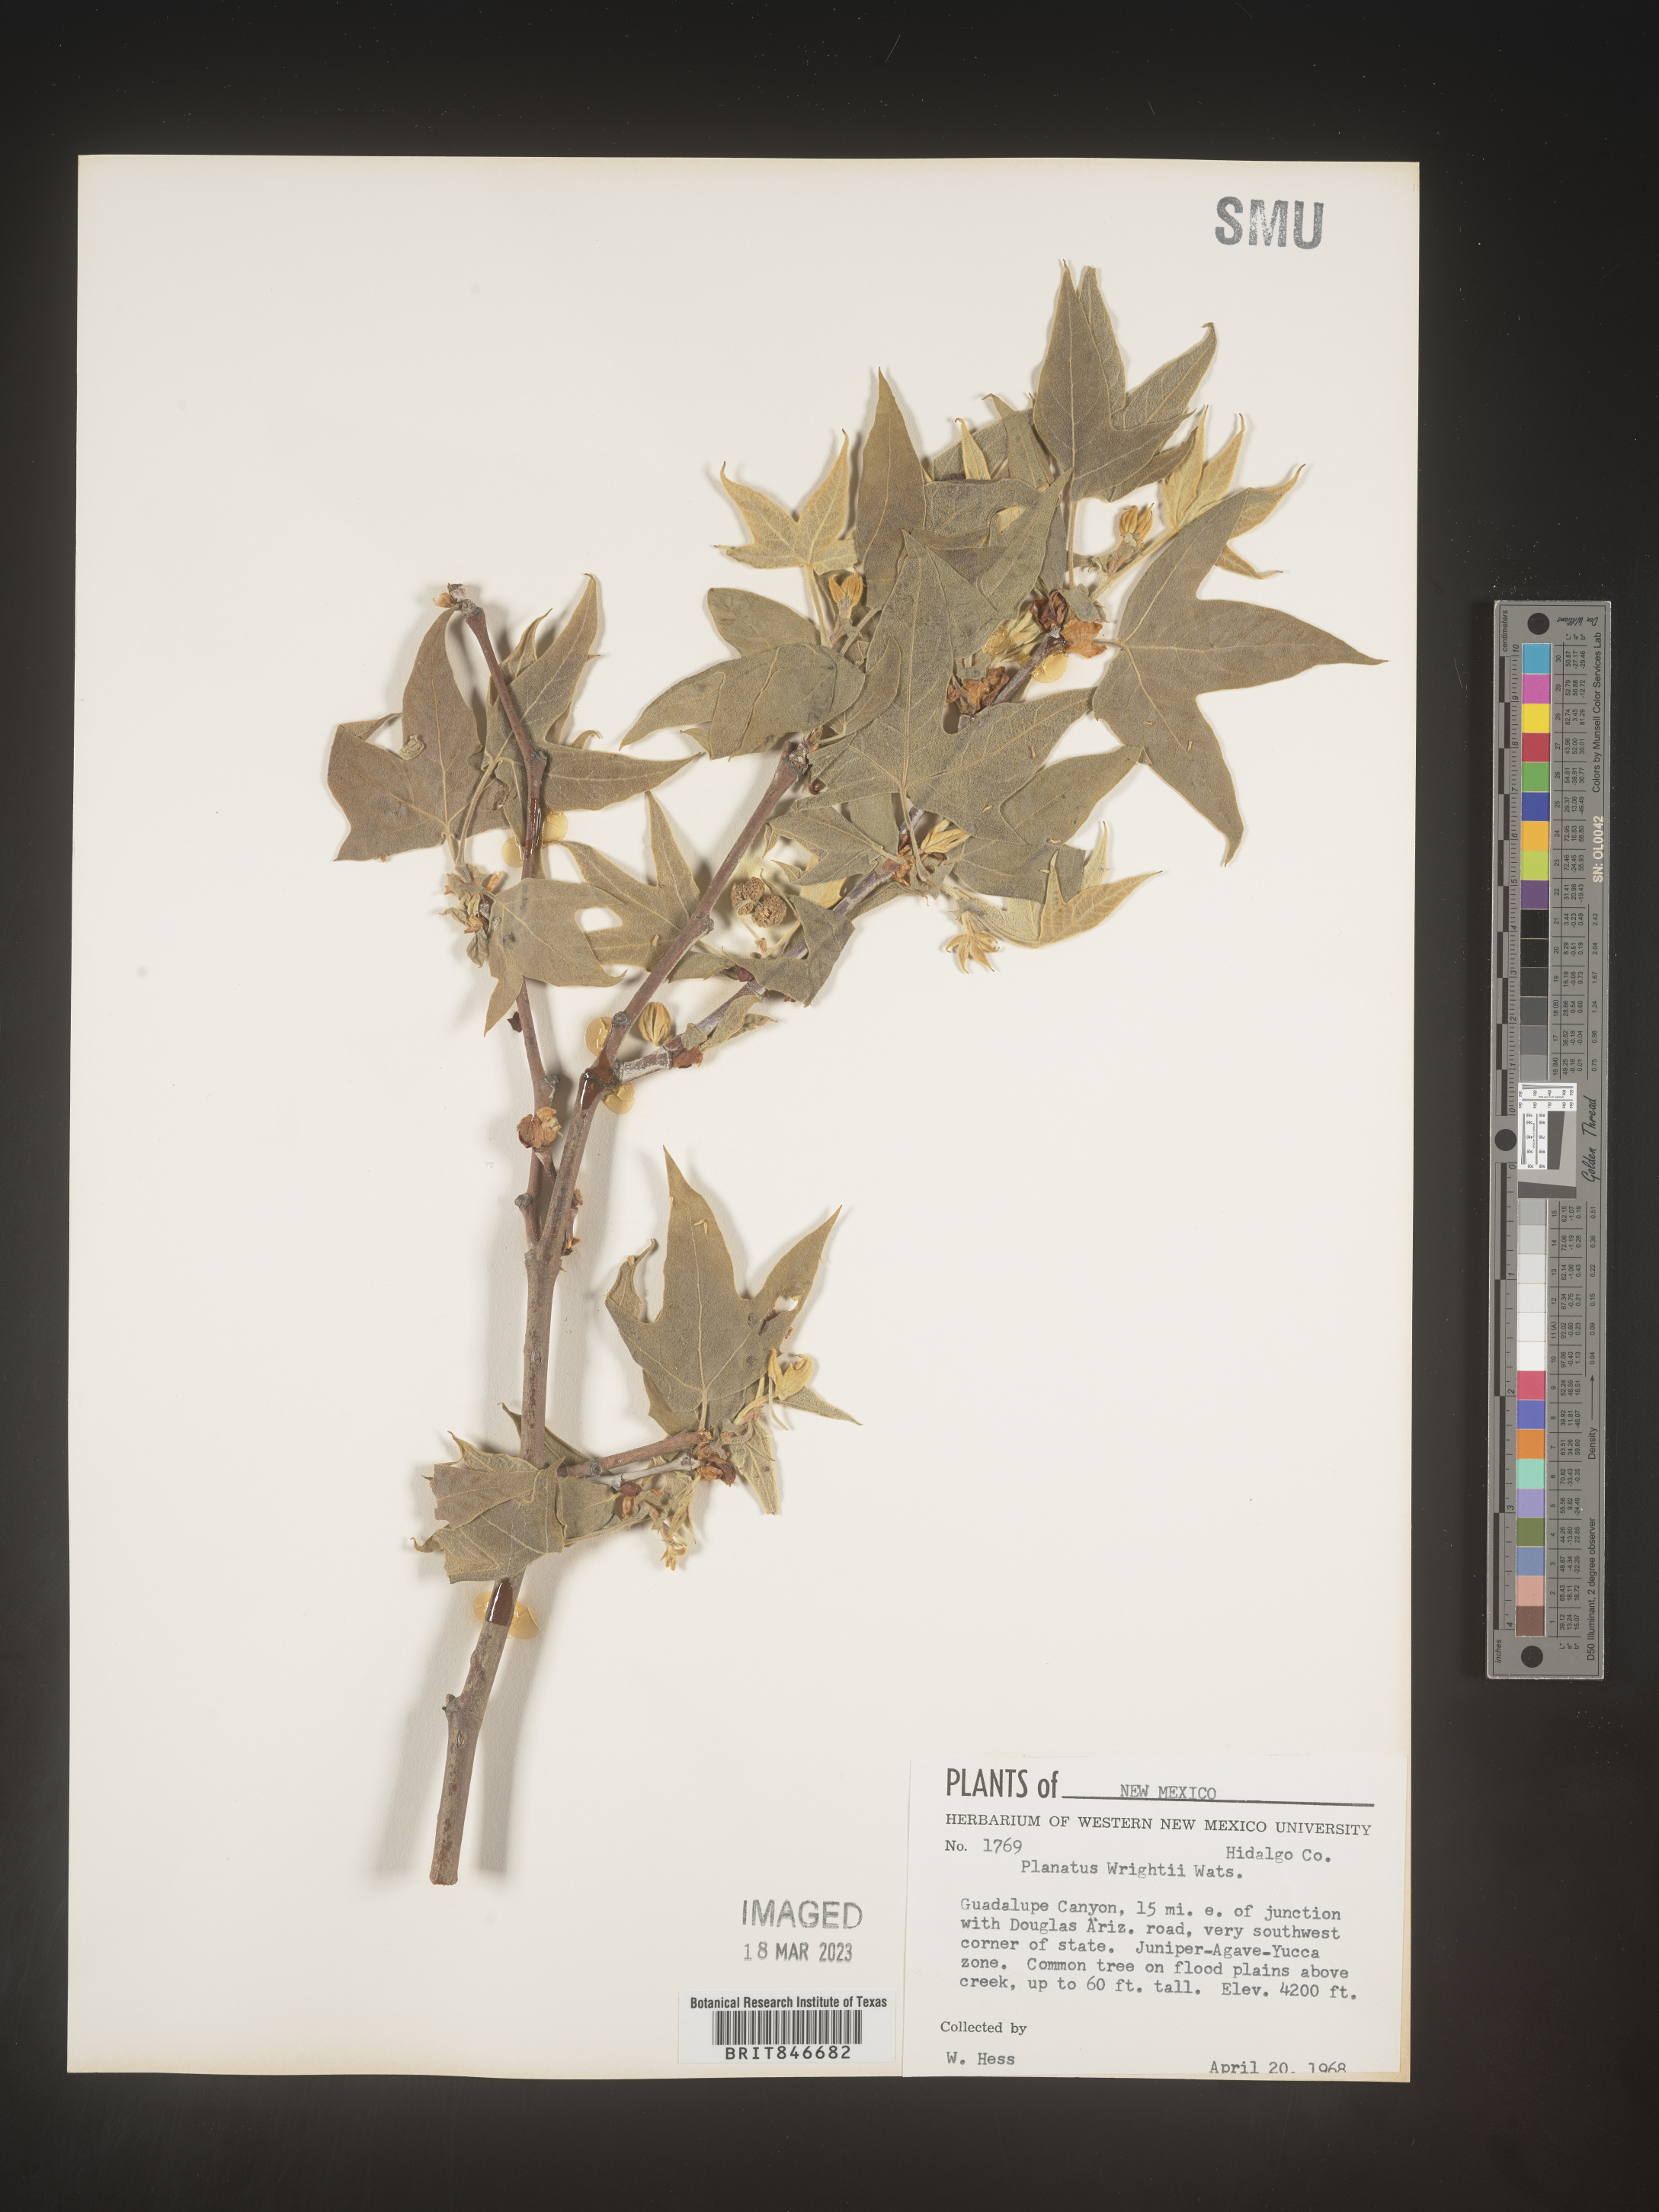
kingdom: Plantae
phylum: Tracheophyta
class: Magnoliopsida
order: Proteales
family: Platanaceae
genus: Platanus
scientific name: Platanus
